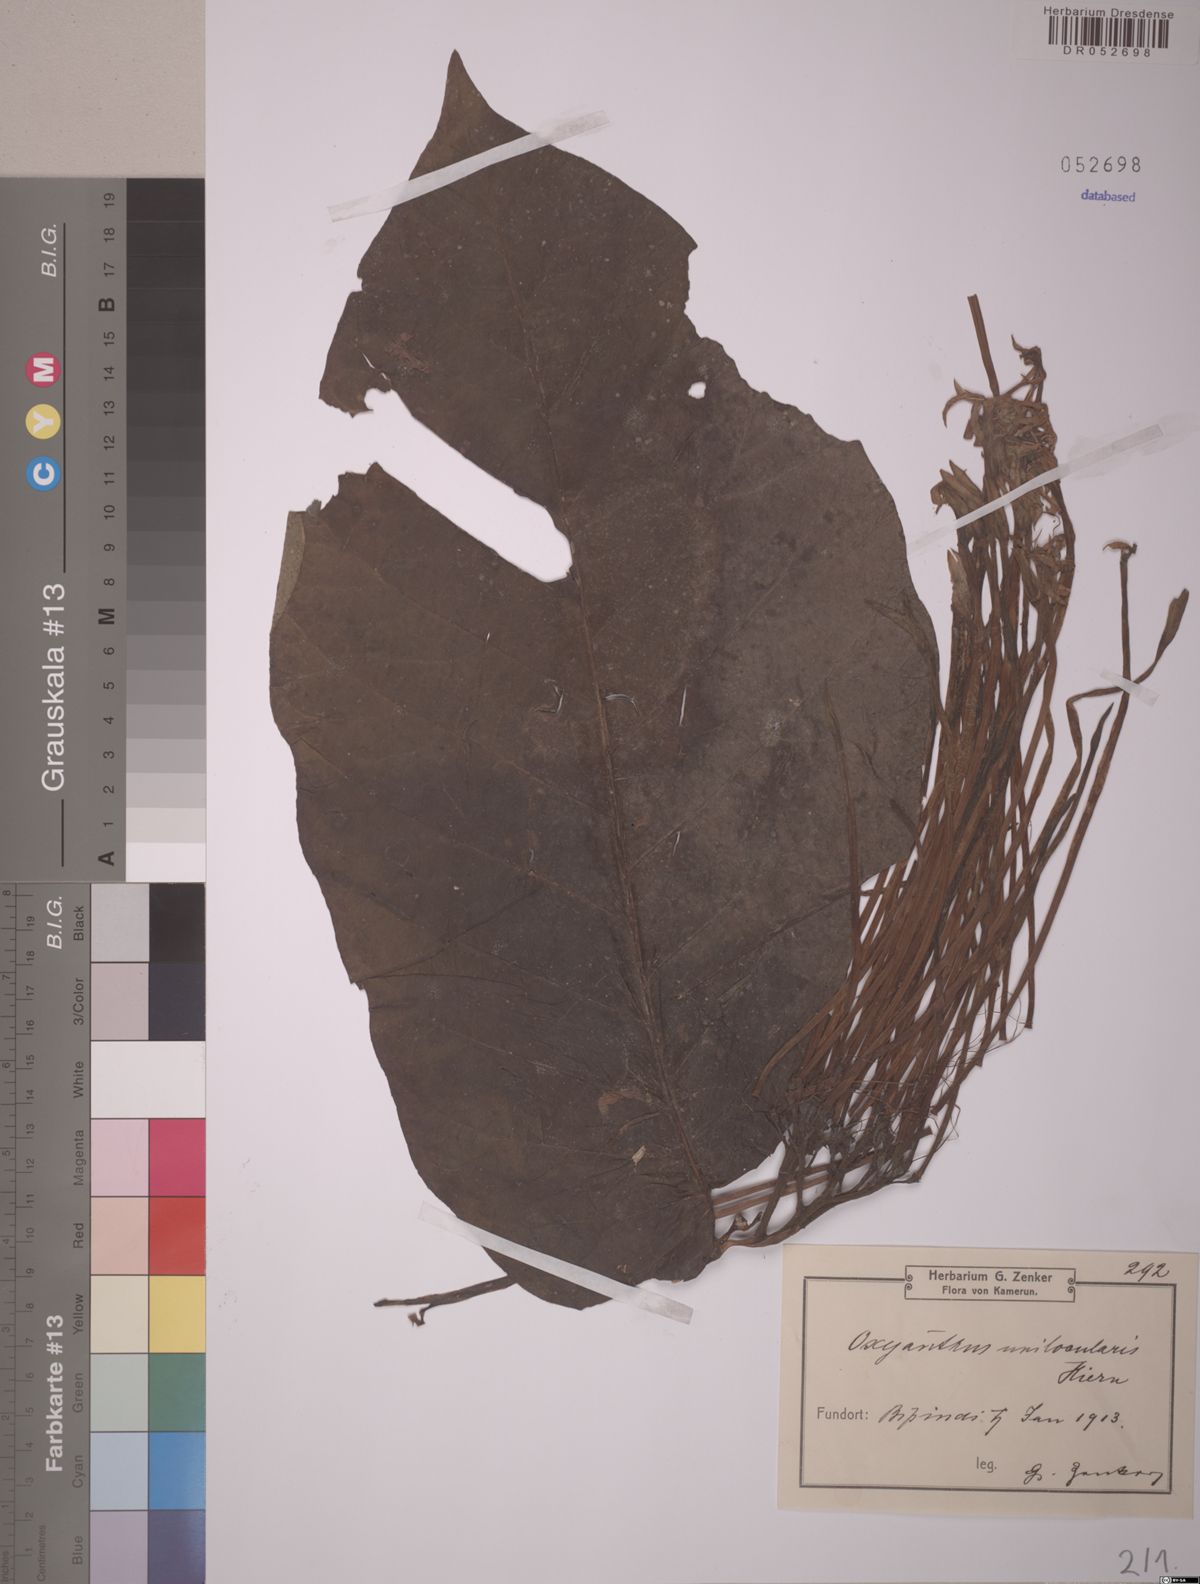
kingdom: Plantae
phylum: Tracheophyta
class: Magnoliopsida
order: Gentianales
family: Rubiaceae
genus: Oxyanthus
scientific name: Oxyanthus unilocularis
